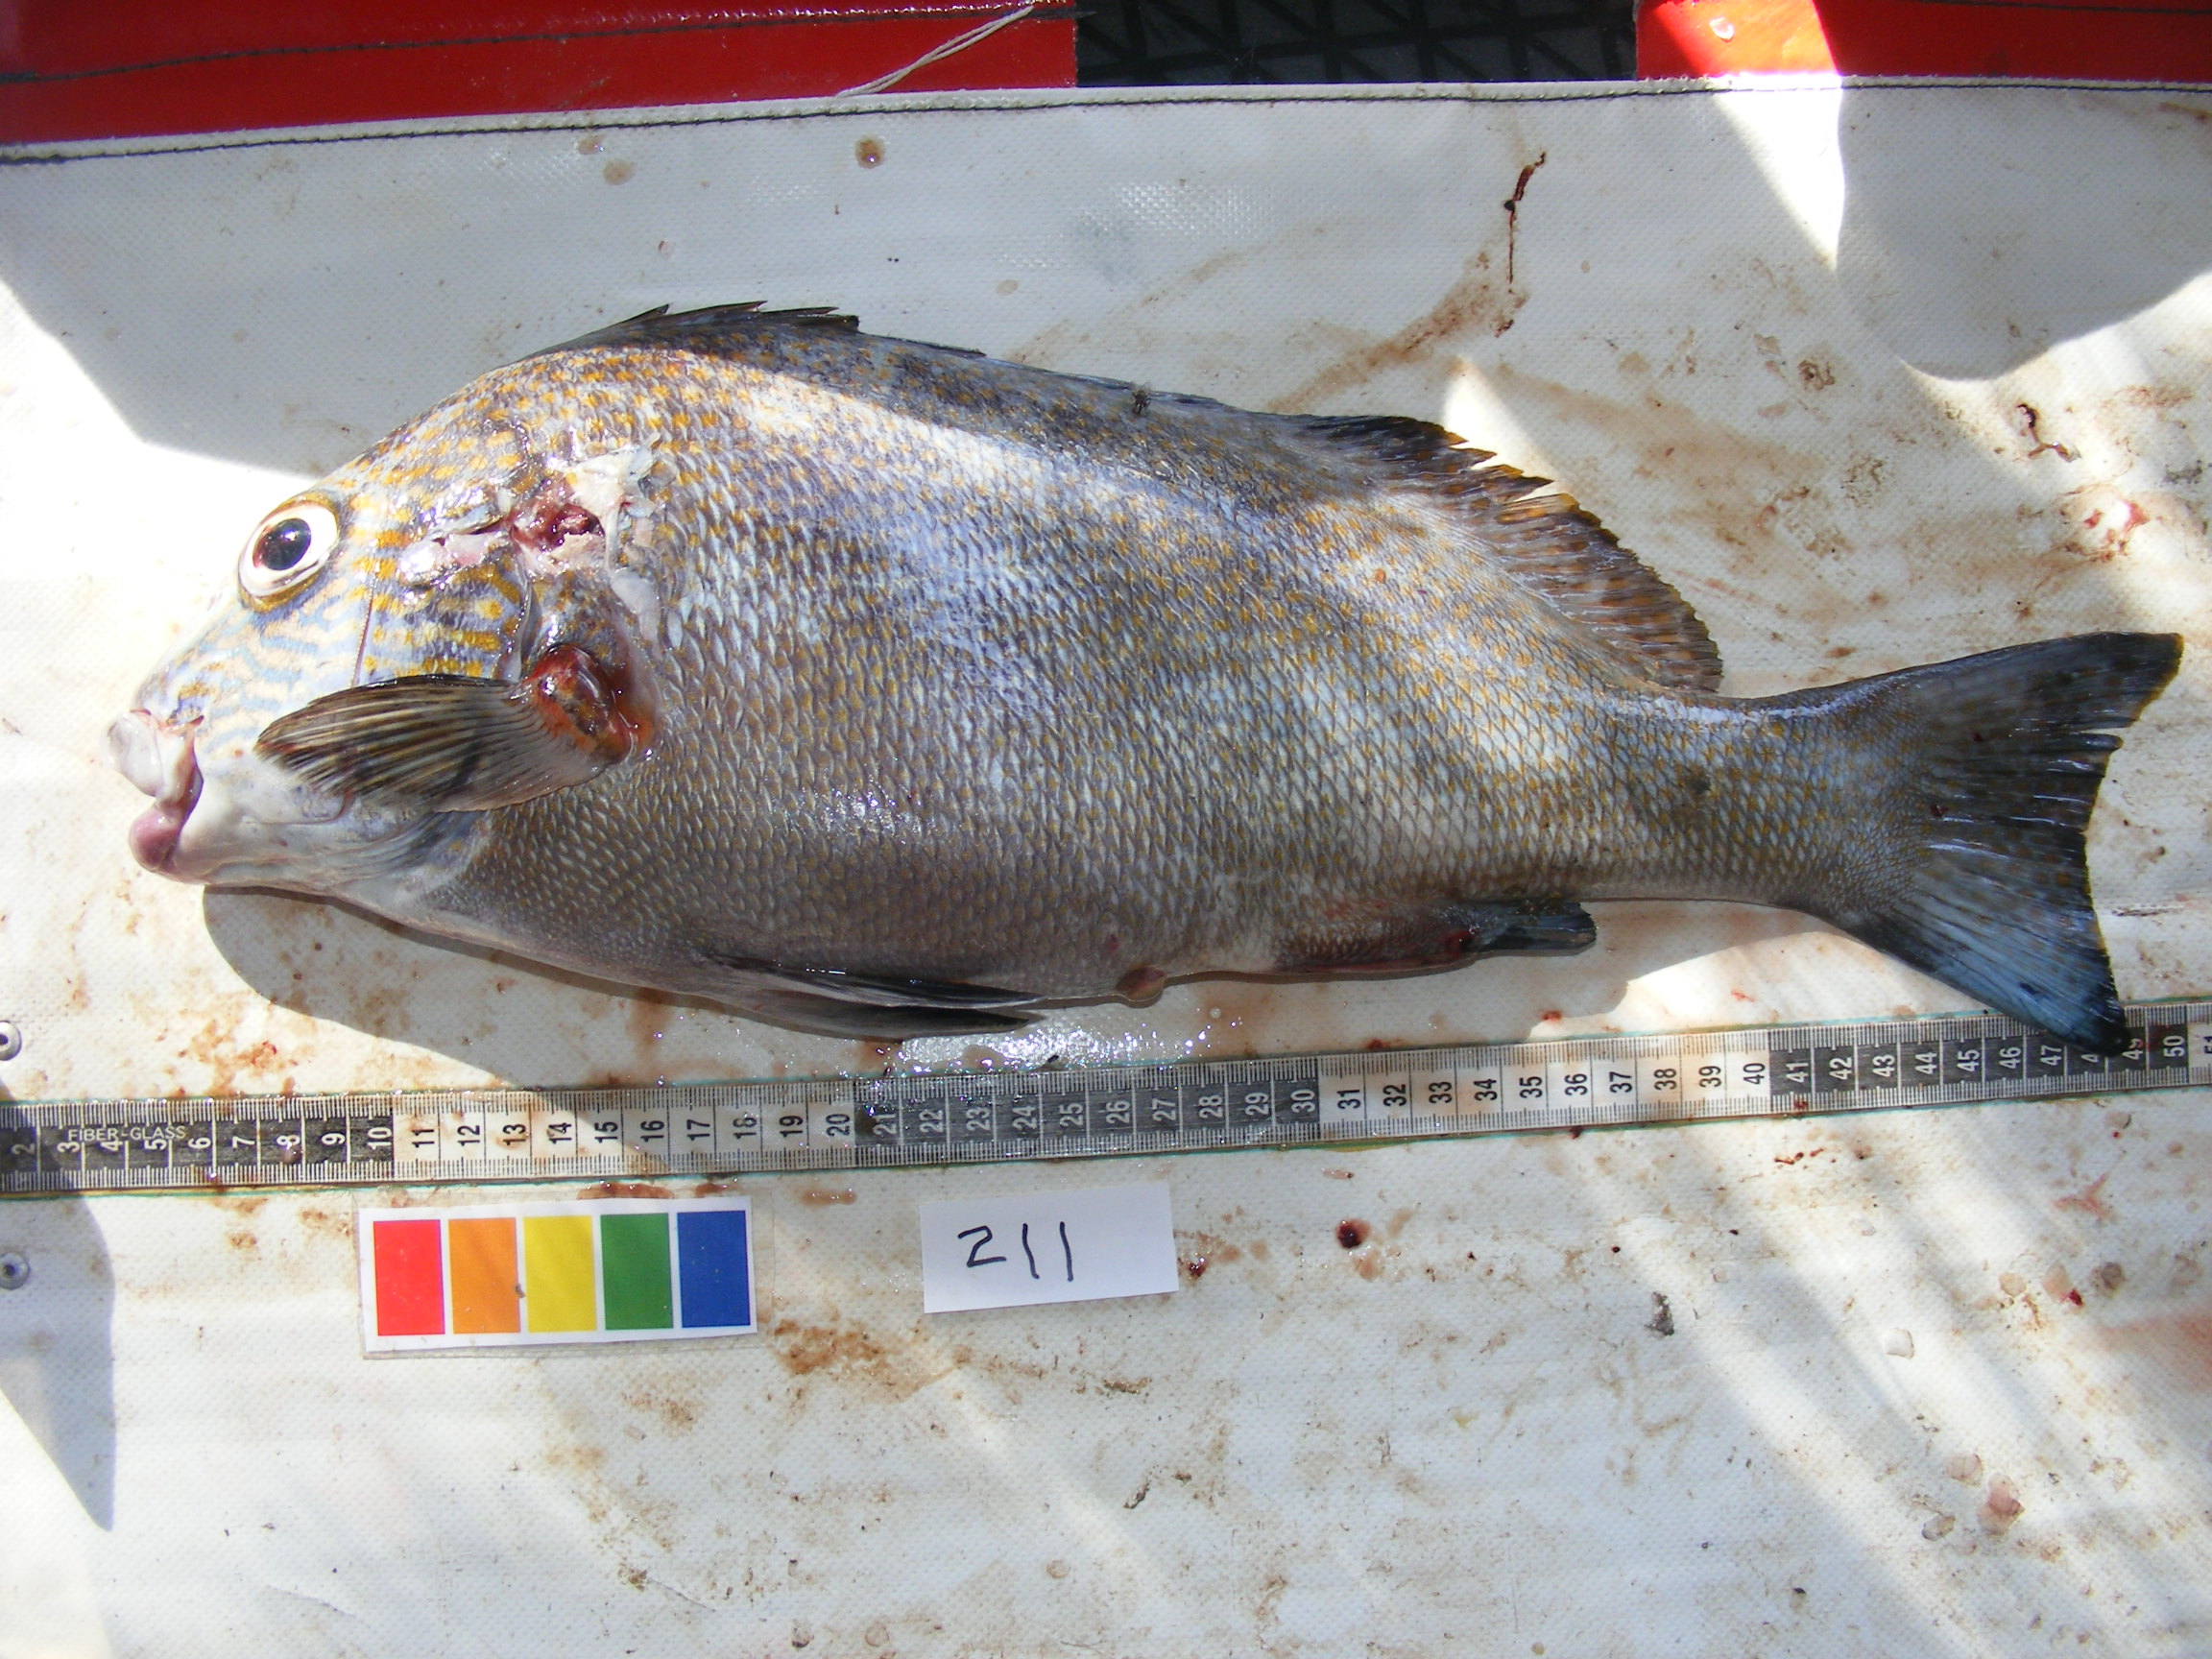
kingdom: Animalia
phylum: Chordata
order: Perciformes
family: Haemulidae
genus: Plectorhinchus
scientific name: Plectorhinchus flavomaculatus
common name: Netted sweetlips
